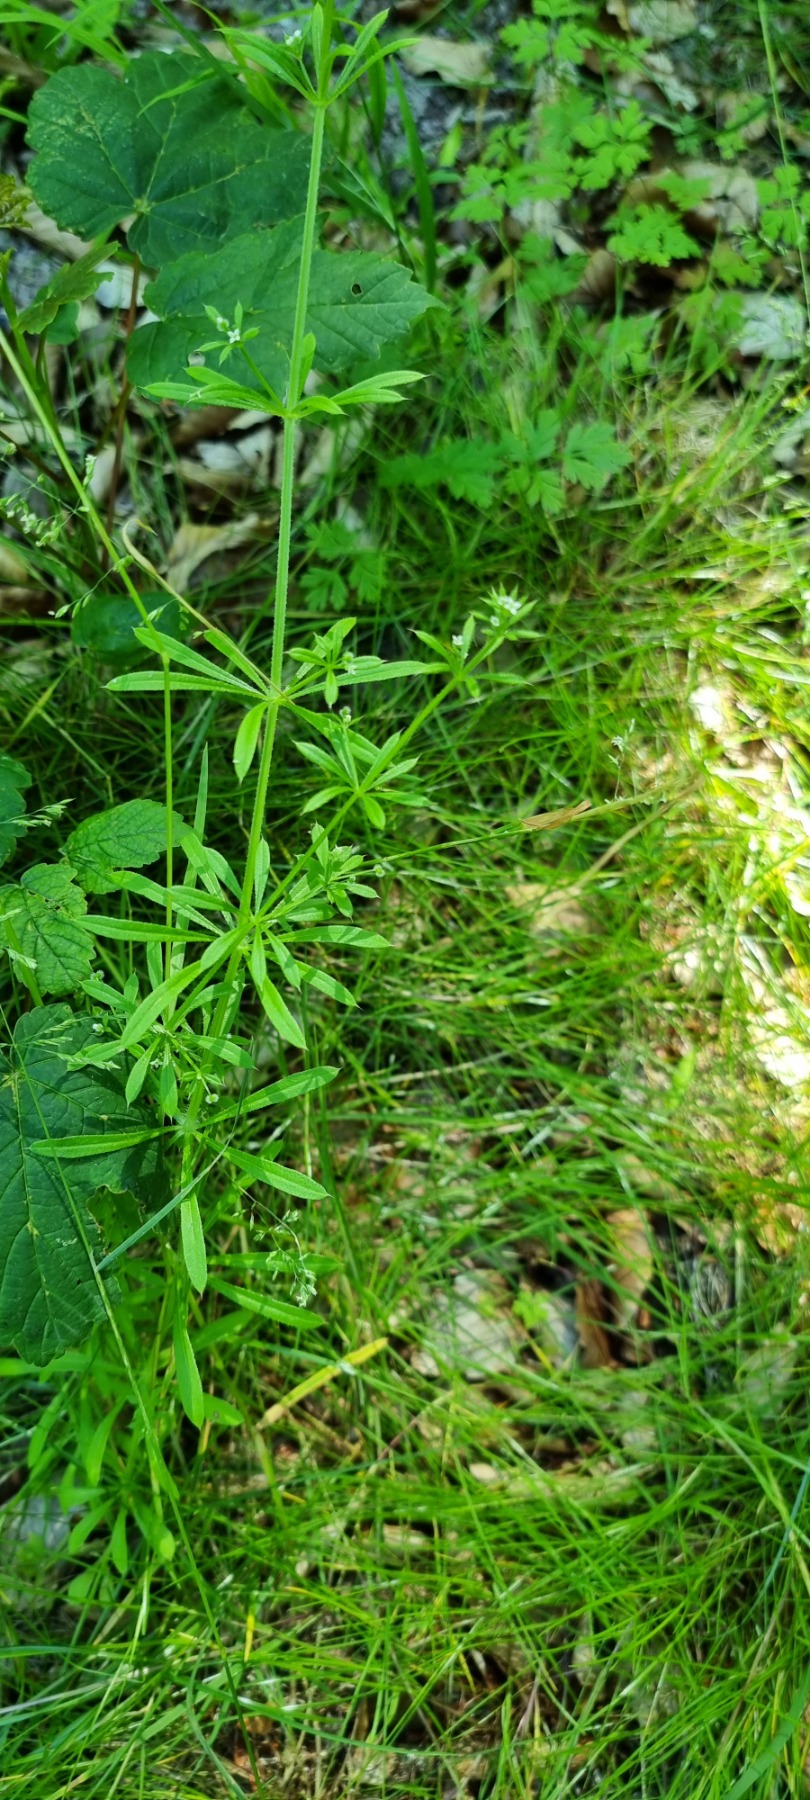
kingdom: Plantae
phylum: Tracheophyta
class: Magnoliopsida
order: Gentianales
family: Rubiaceae
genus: Galium
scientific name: Galium aparine
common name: Burre-snerre
